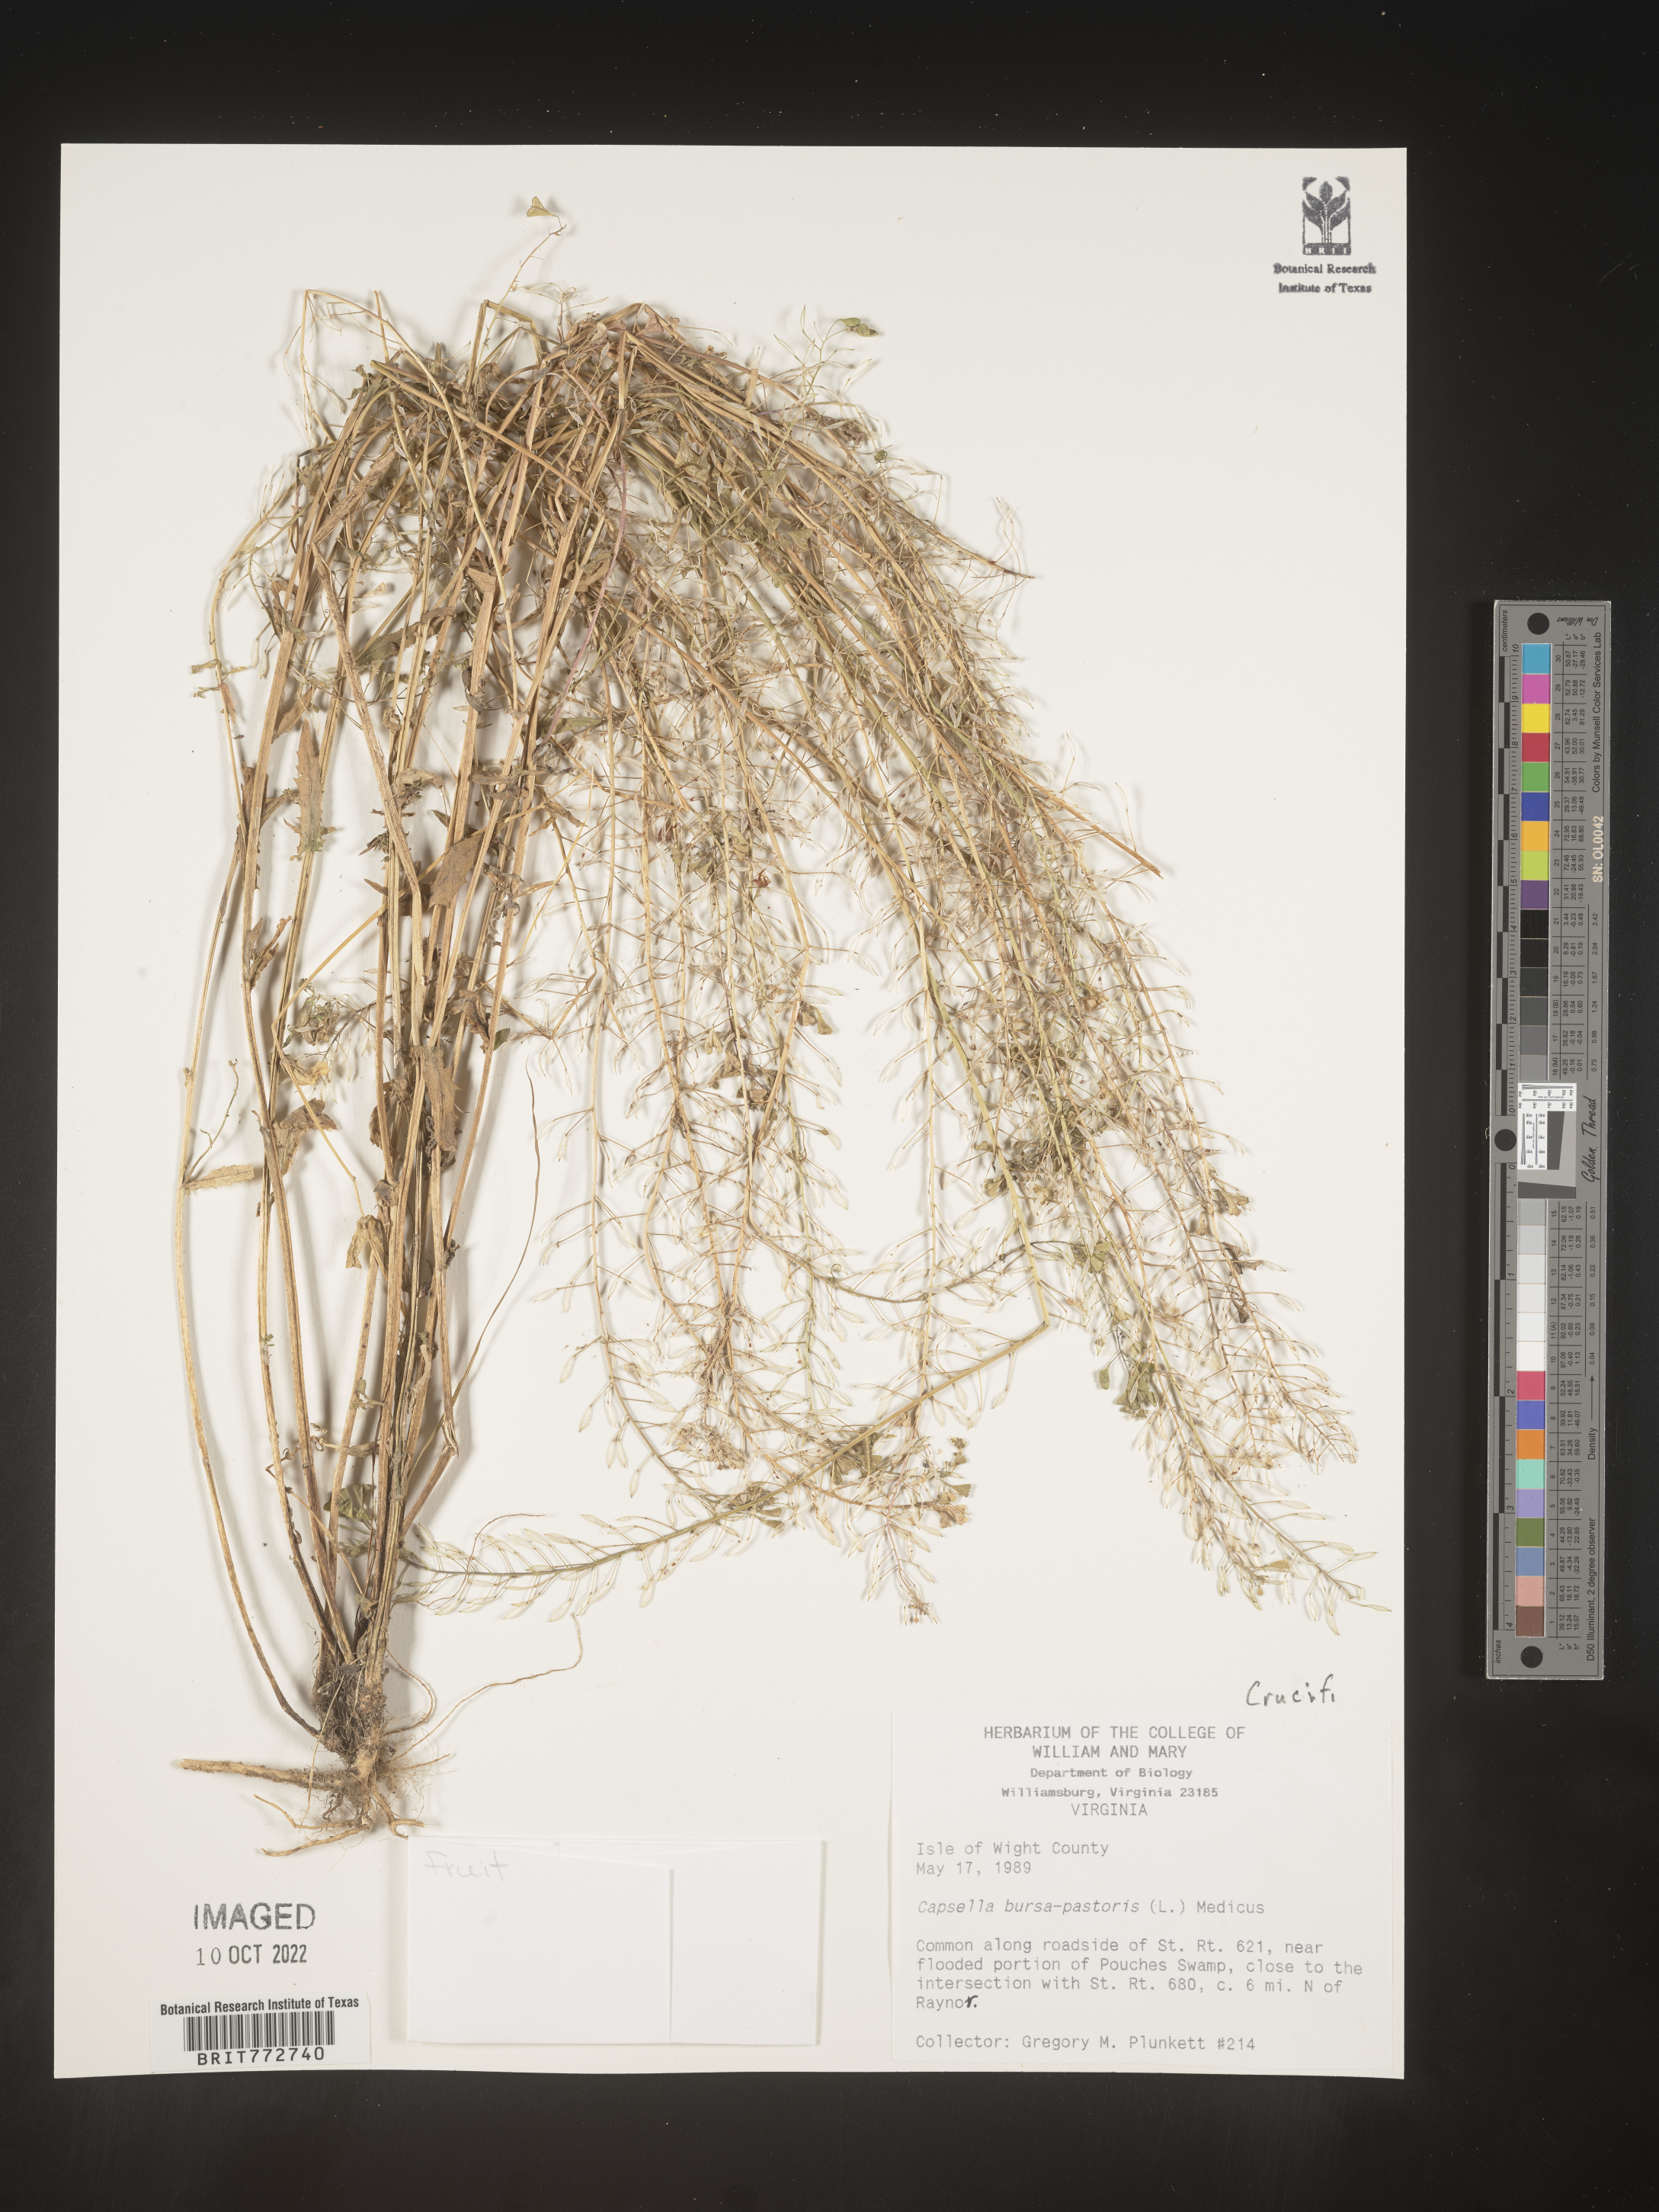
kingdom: Plantae
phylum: Tracheophyta
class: Magnoliopsida
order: Brassicales
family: Brassicaceae
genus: Capsella
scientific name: Capsella bursa-pastoris
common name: Shepherd's purse
